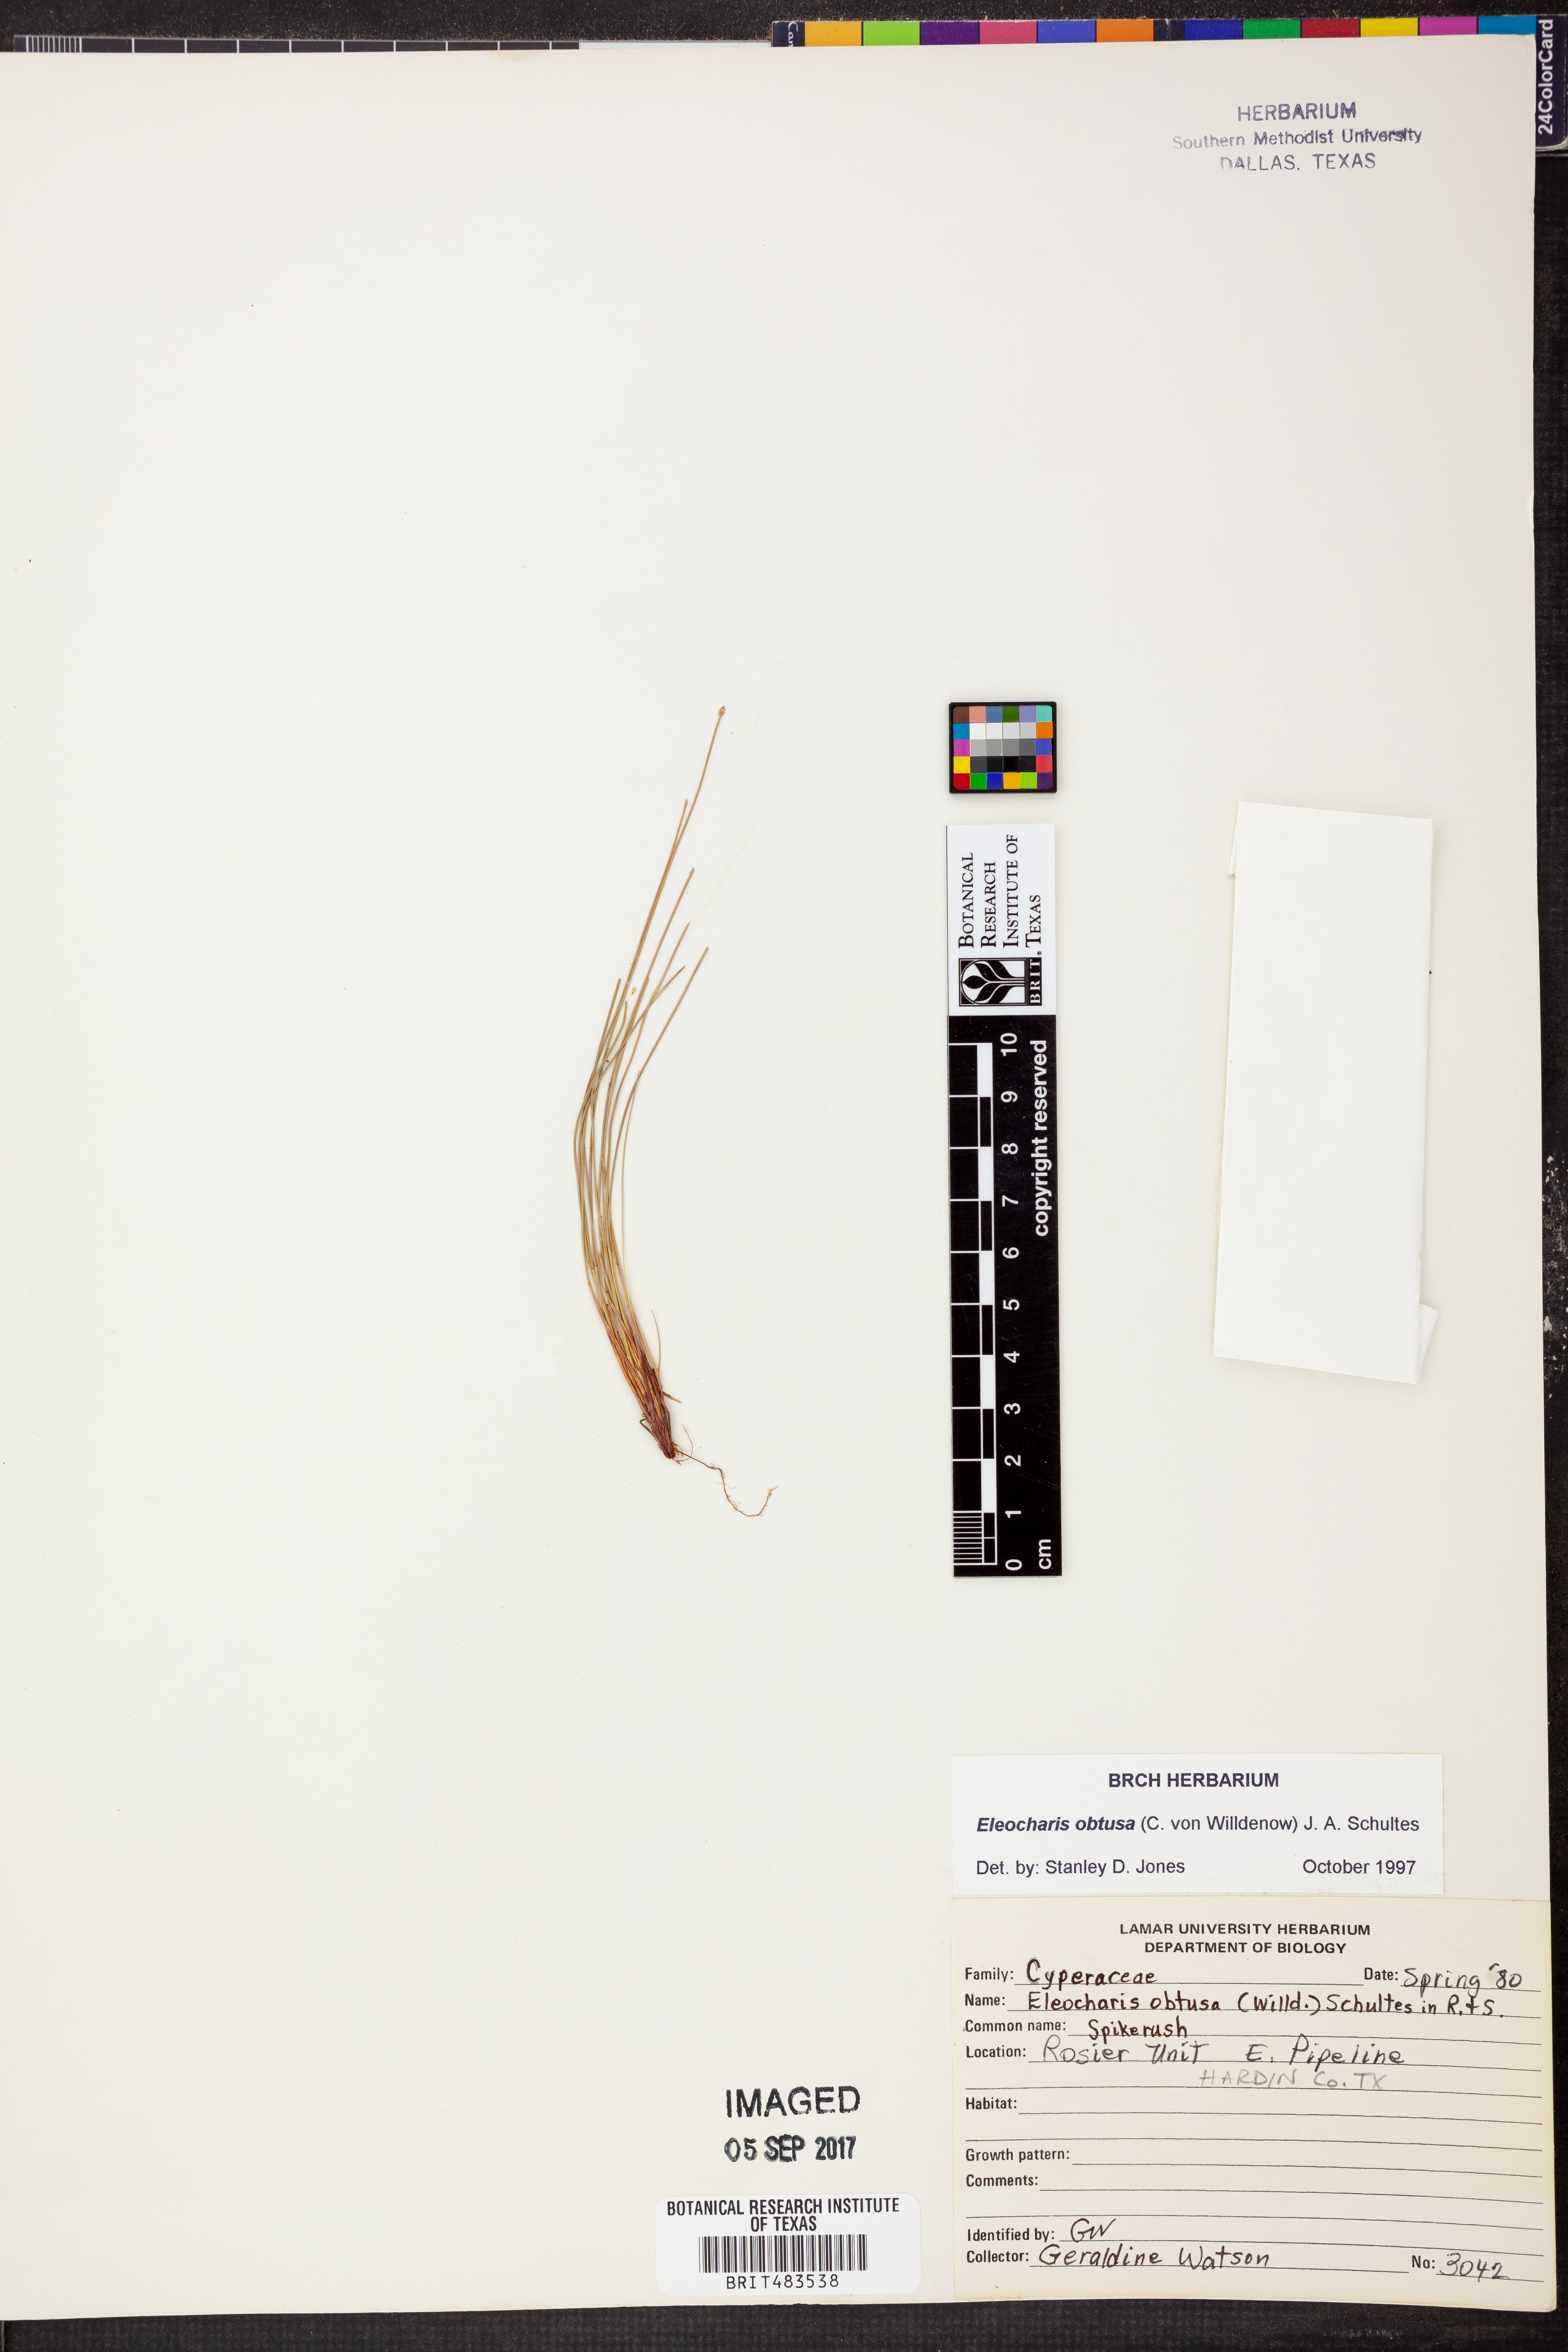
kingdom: Plantae
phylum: Tracheophyta
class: Liliopsida
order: Poales
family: Cyperaceae
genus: Eleocharis
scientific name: Eleocharis obtusa
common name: Blunt spikerush
